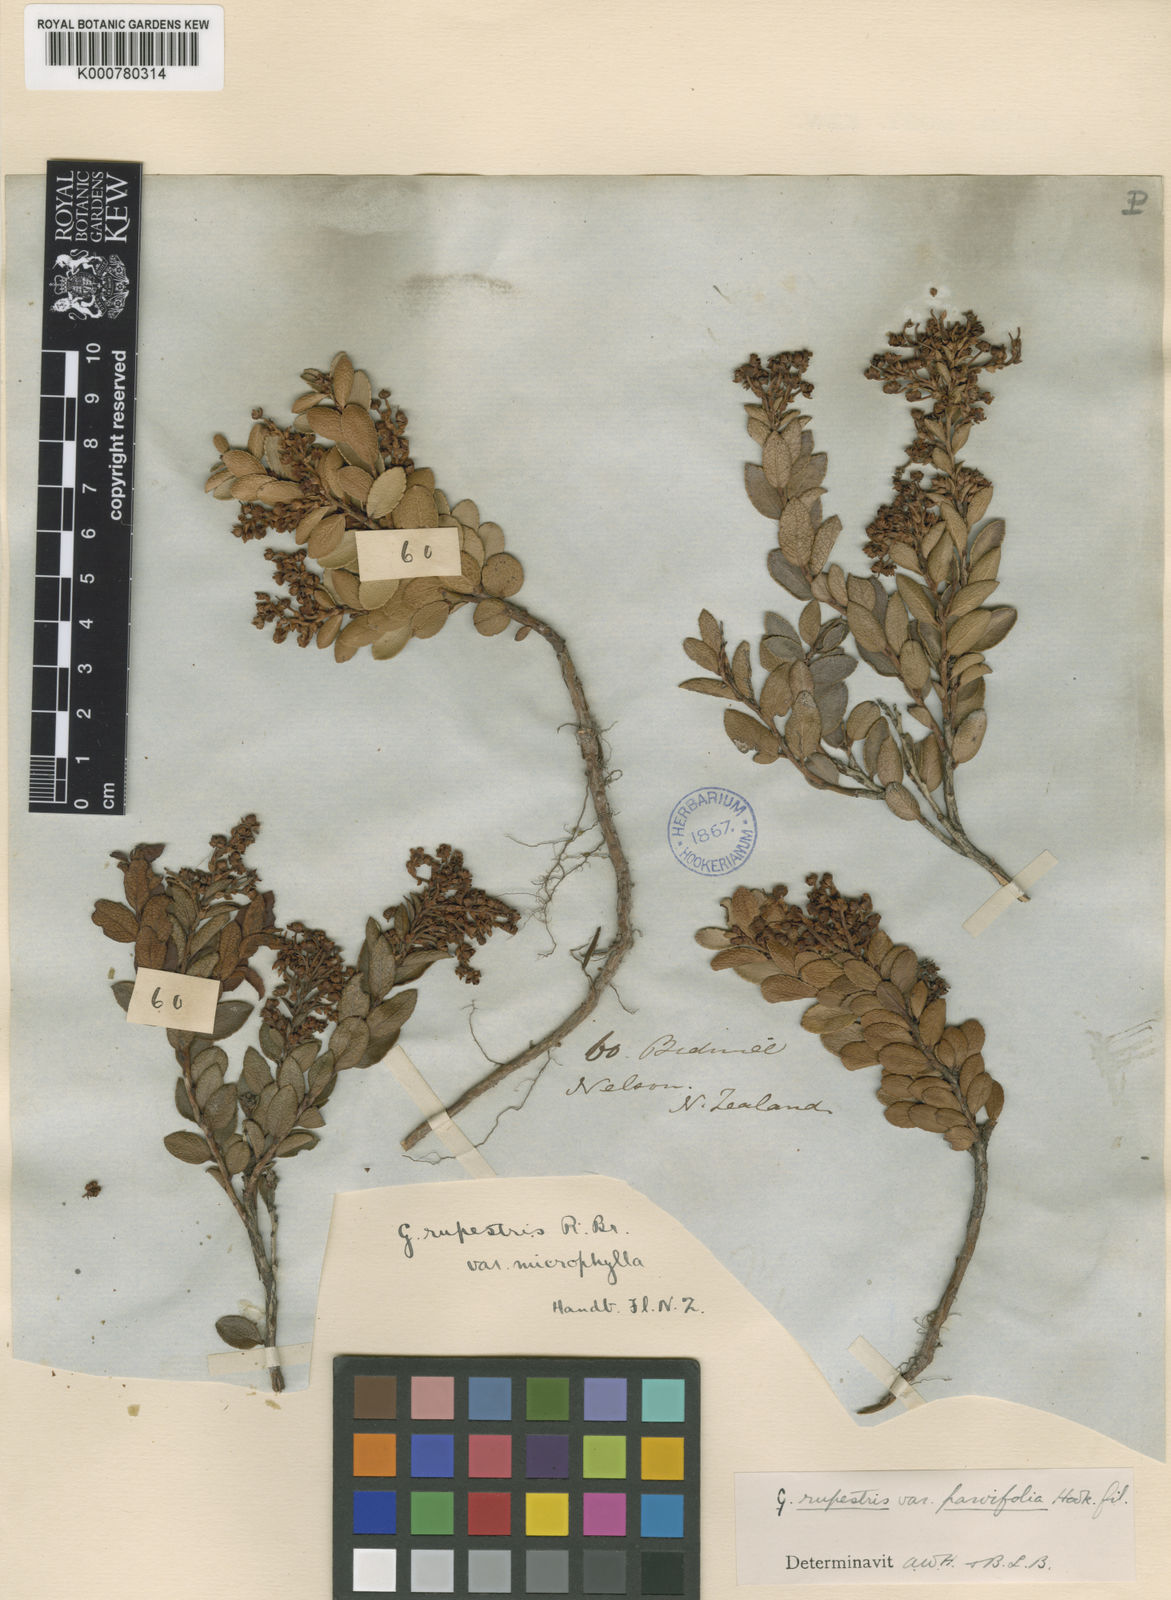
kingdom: Plantae
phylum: Tracheophyta
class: Magnoliopsida
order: Ericales
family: Ericaceae
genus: Gaultheria
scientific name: Gaultheria
